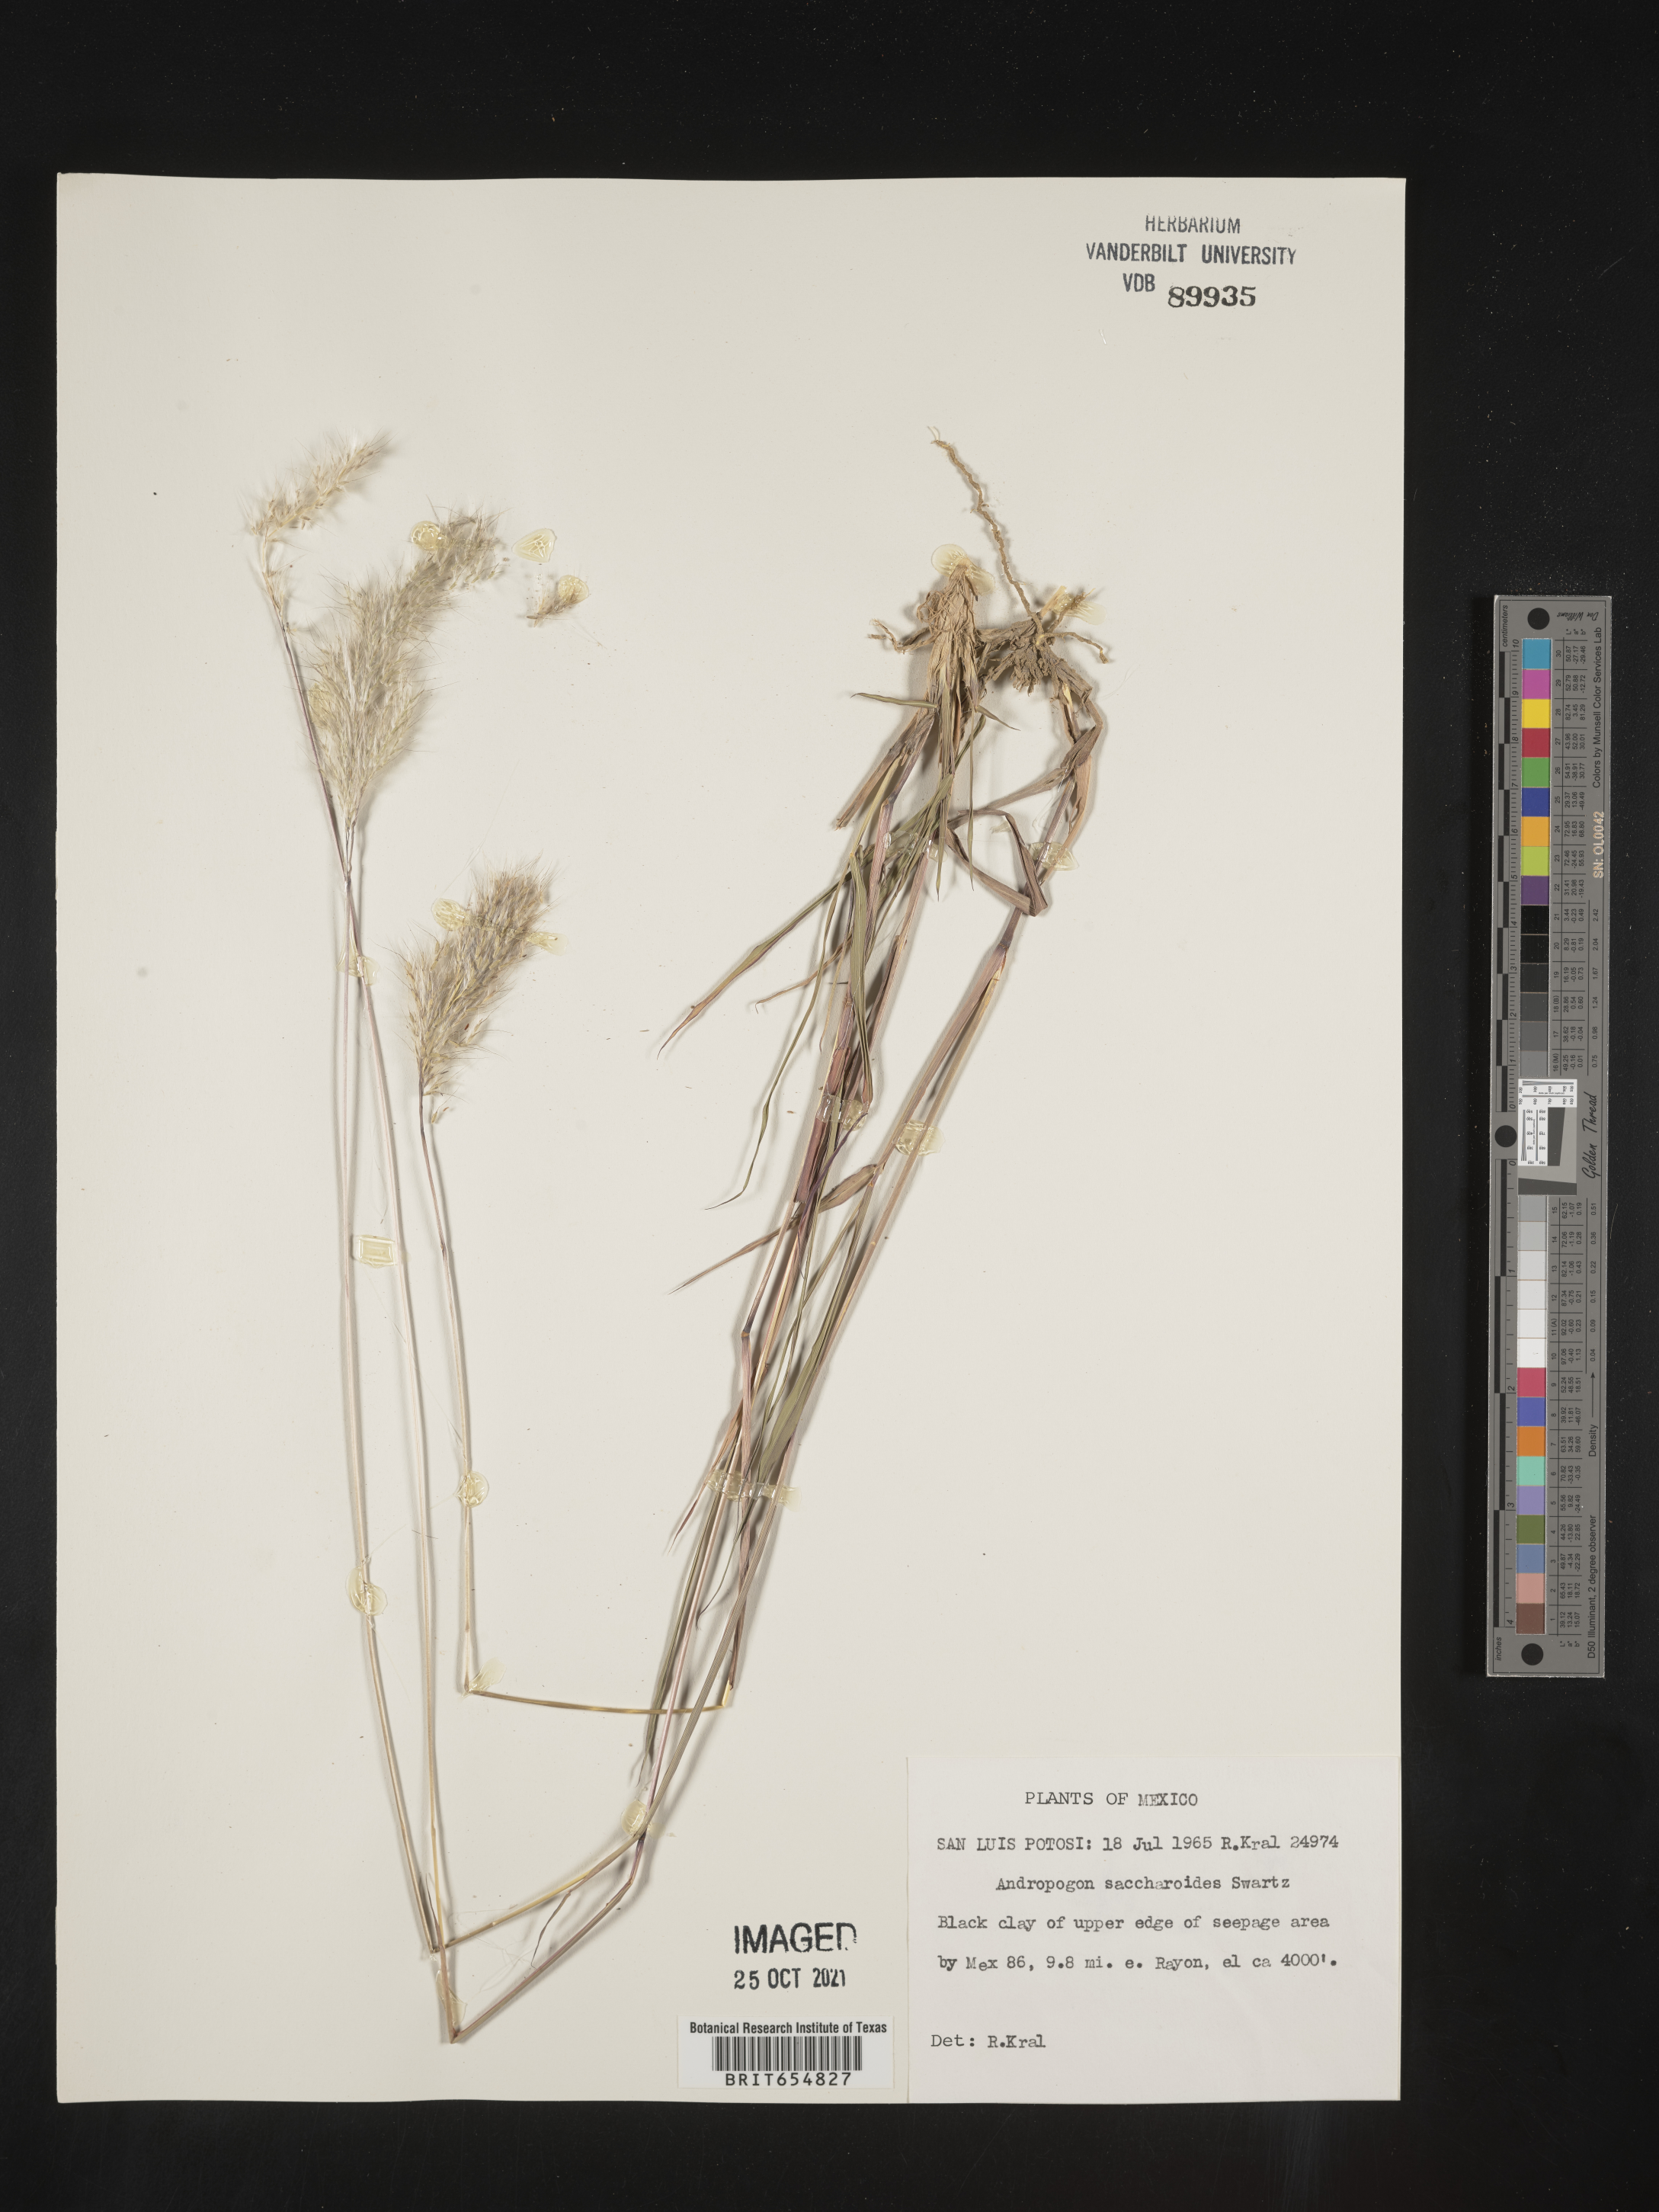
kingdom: Plantae
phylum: Tracheophyta
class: Liliopsida
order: Poales
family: Poaceae
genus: Andropogon
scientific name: Andropogon
